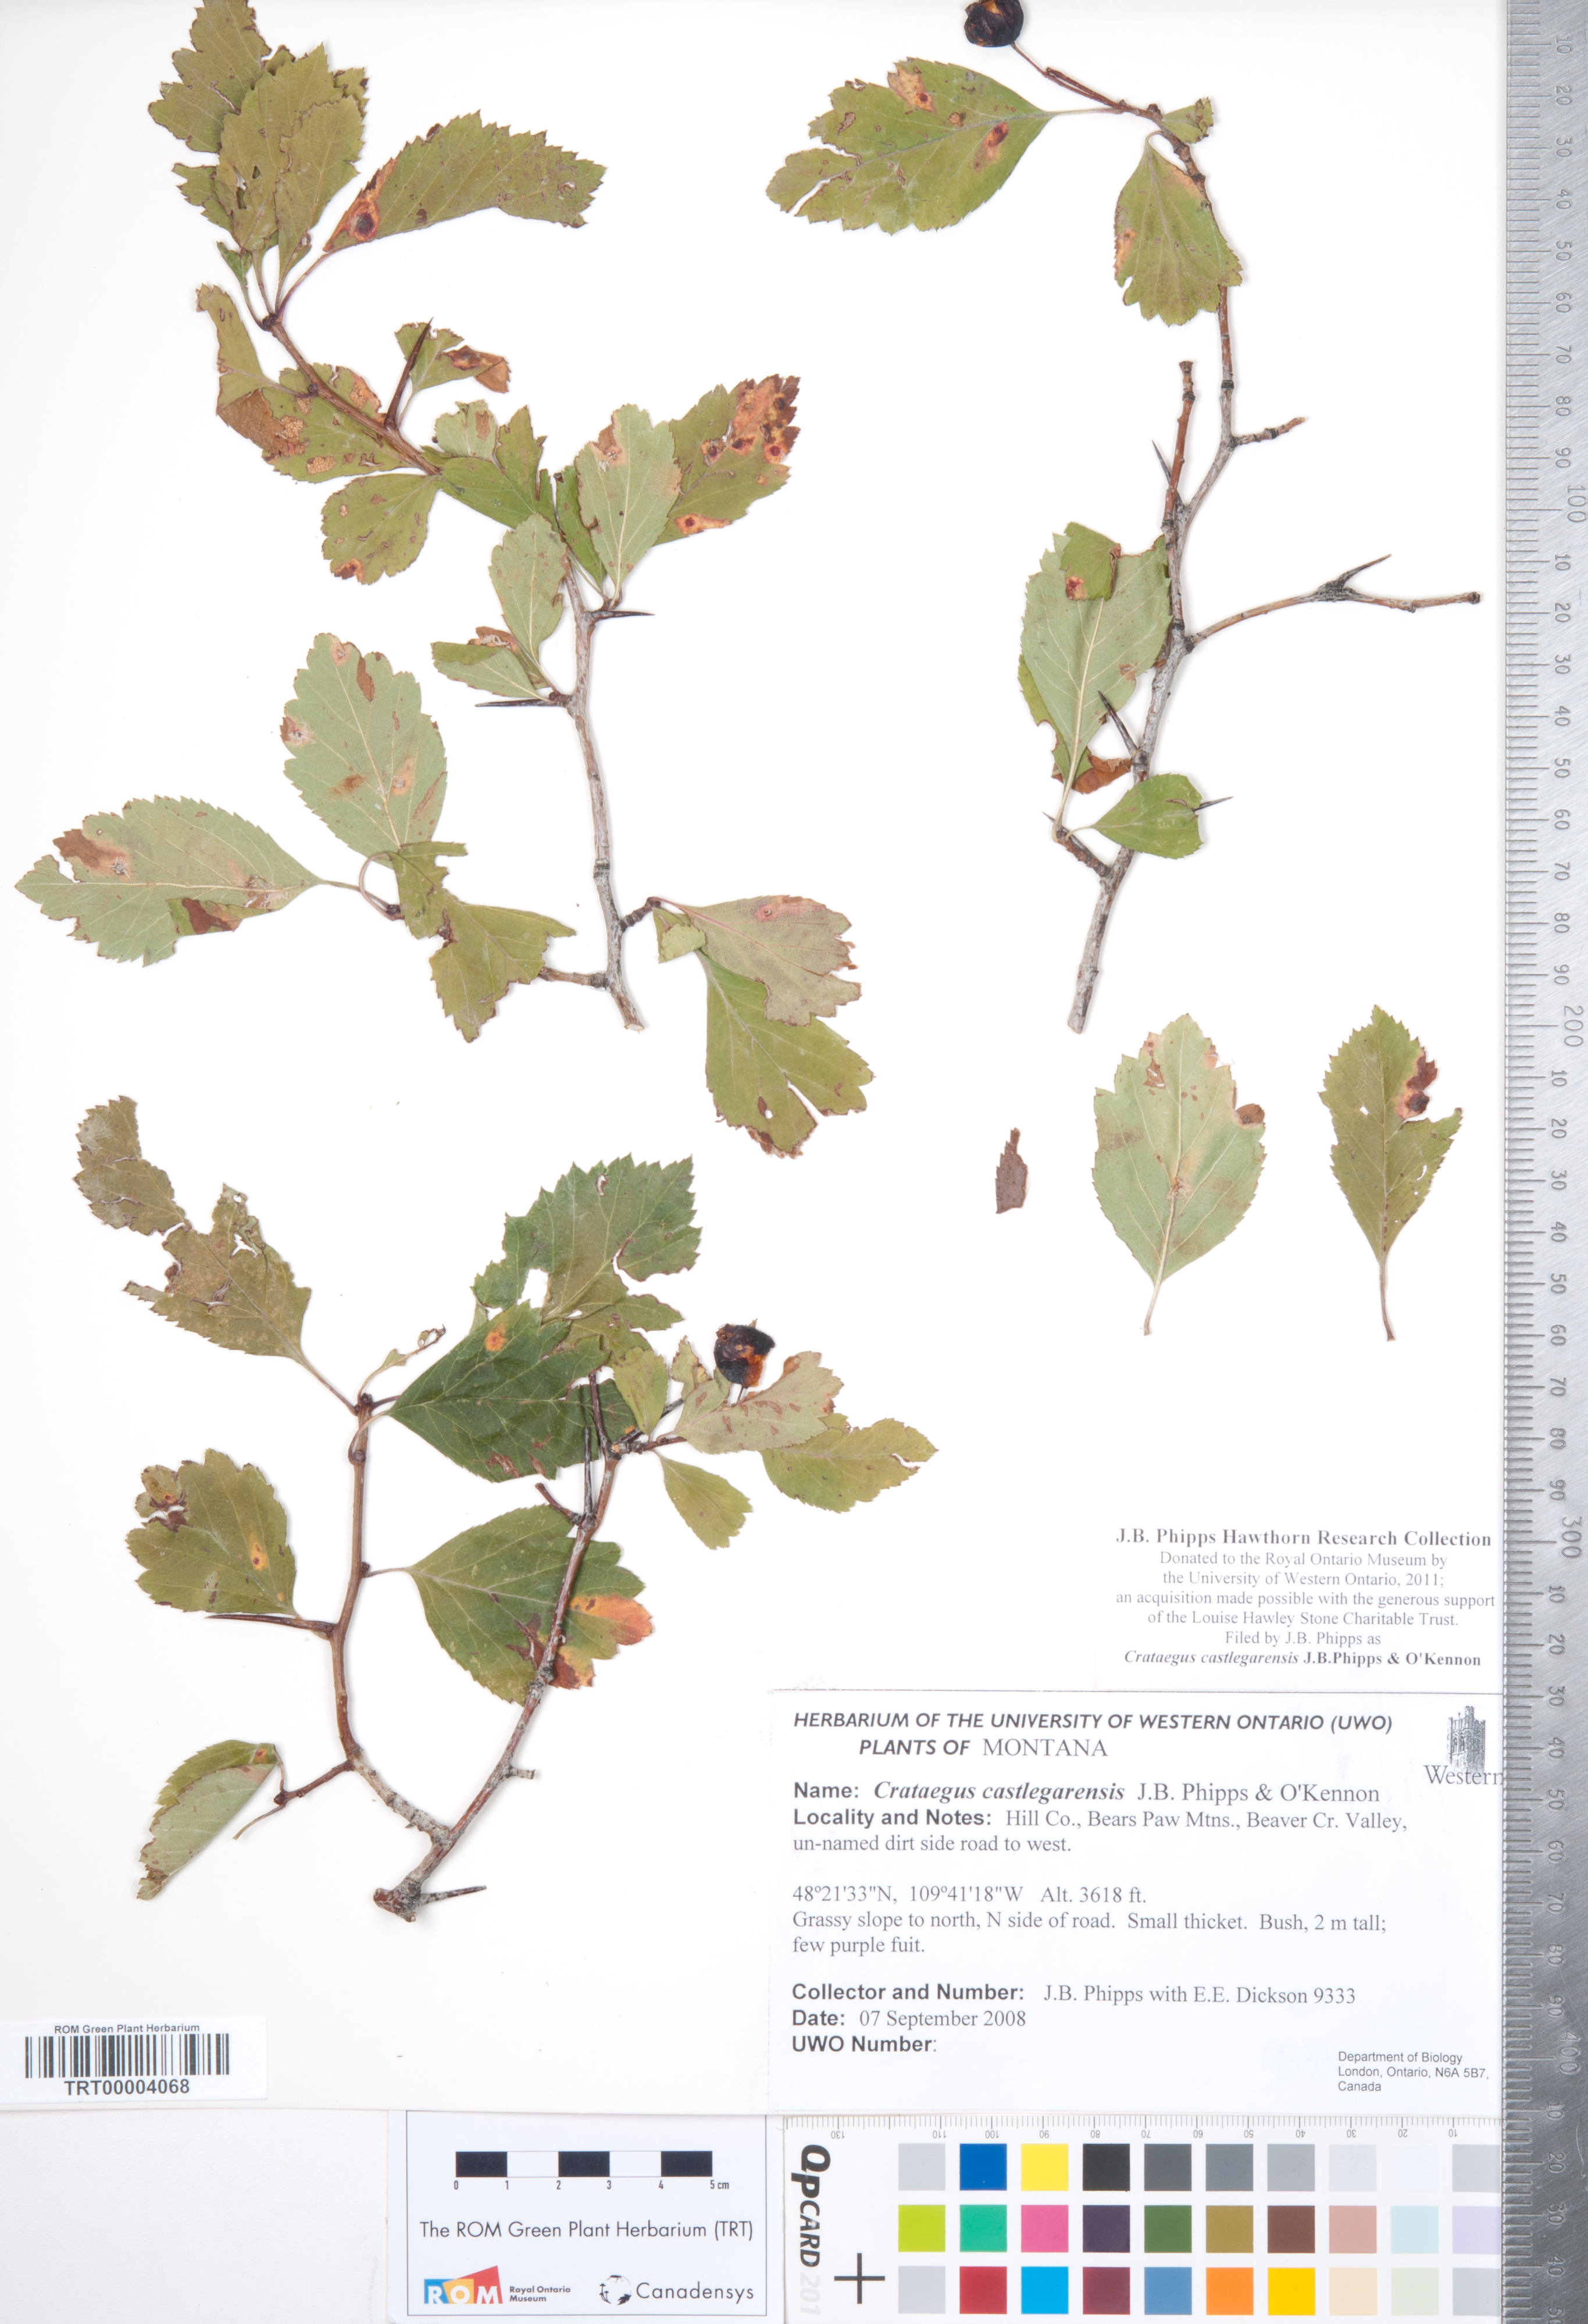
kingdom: Plantae
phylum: Tracheophyta
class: Magnoliopsida
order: Rosales
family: Rosaceae
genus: Crataegus
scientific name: Crataegus castlegarensis
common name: Castlegar hawthorn
